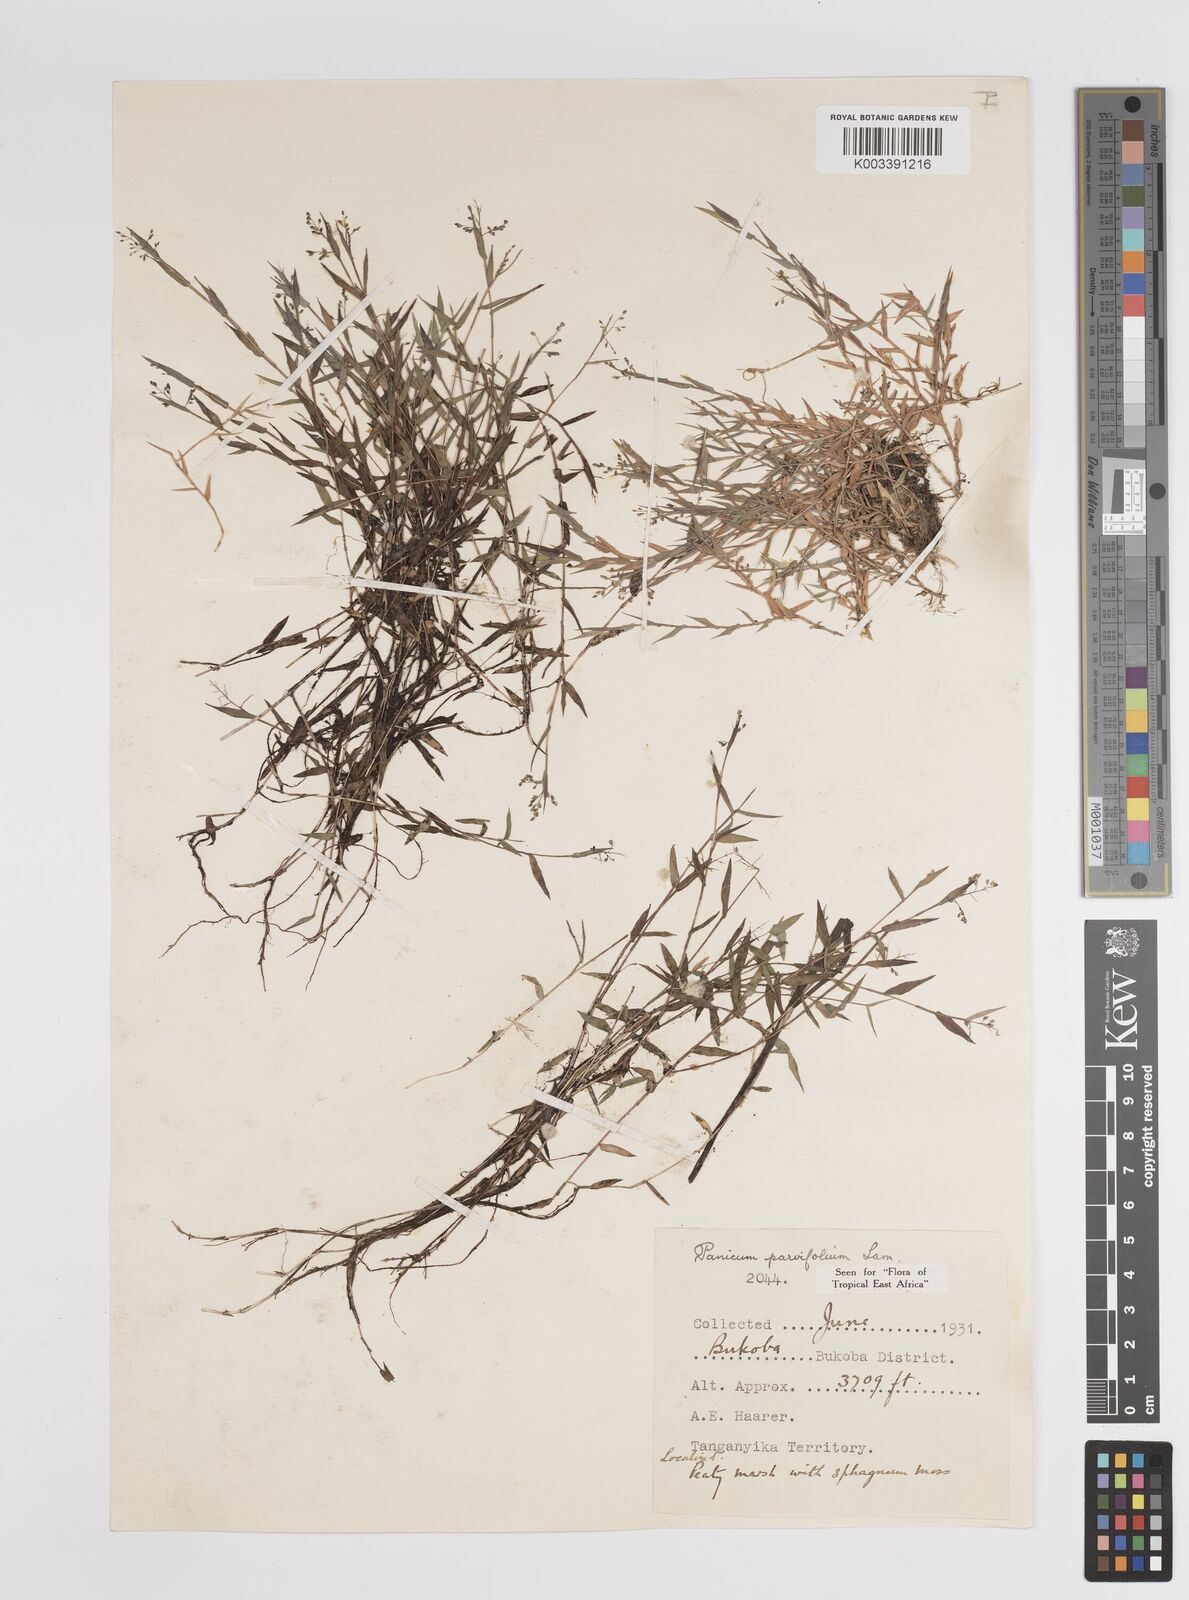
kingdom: Plantae
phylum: Tracheophyta
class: Liliopsida
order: Poales
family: Poaceae
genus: Trichanthecium
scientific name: Trichanthecium parvifolium
